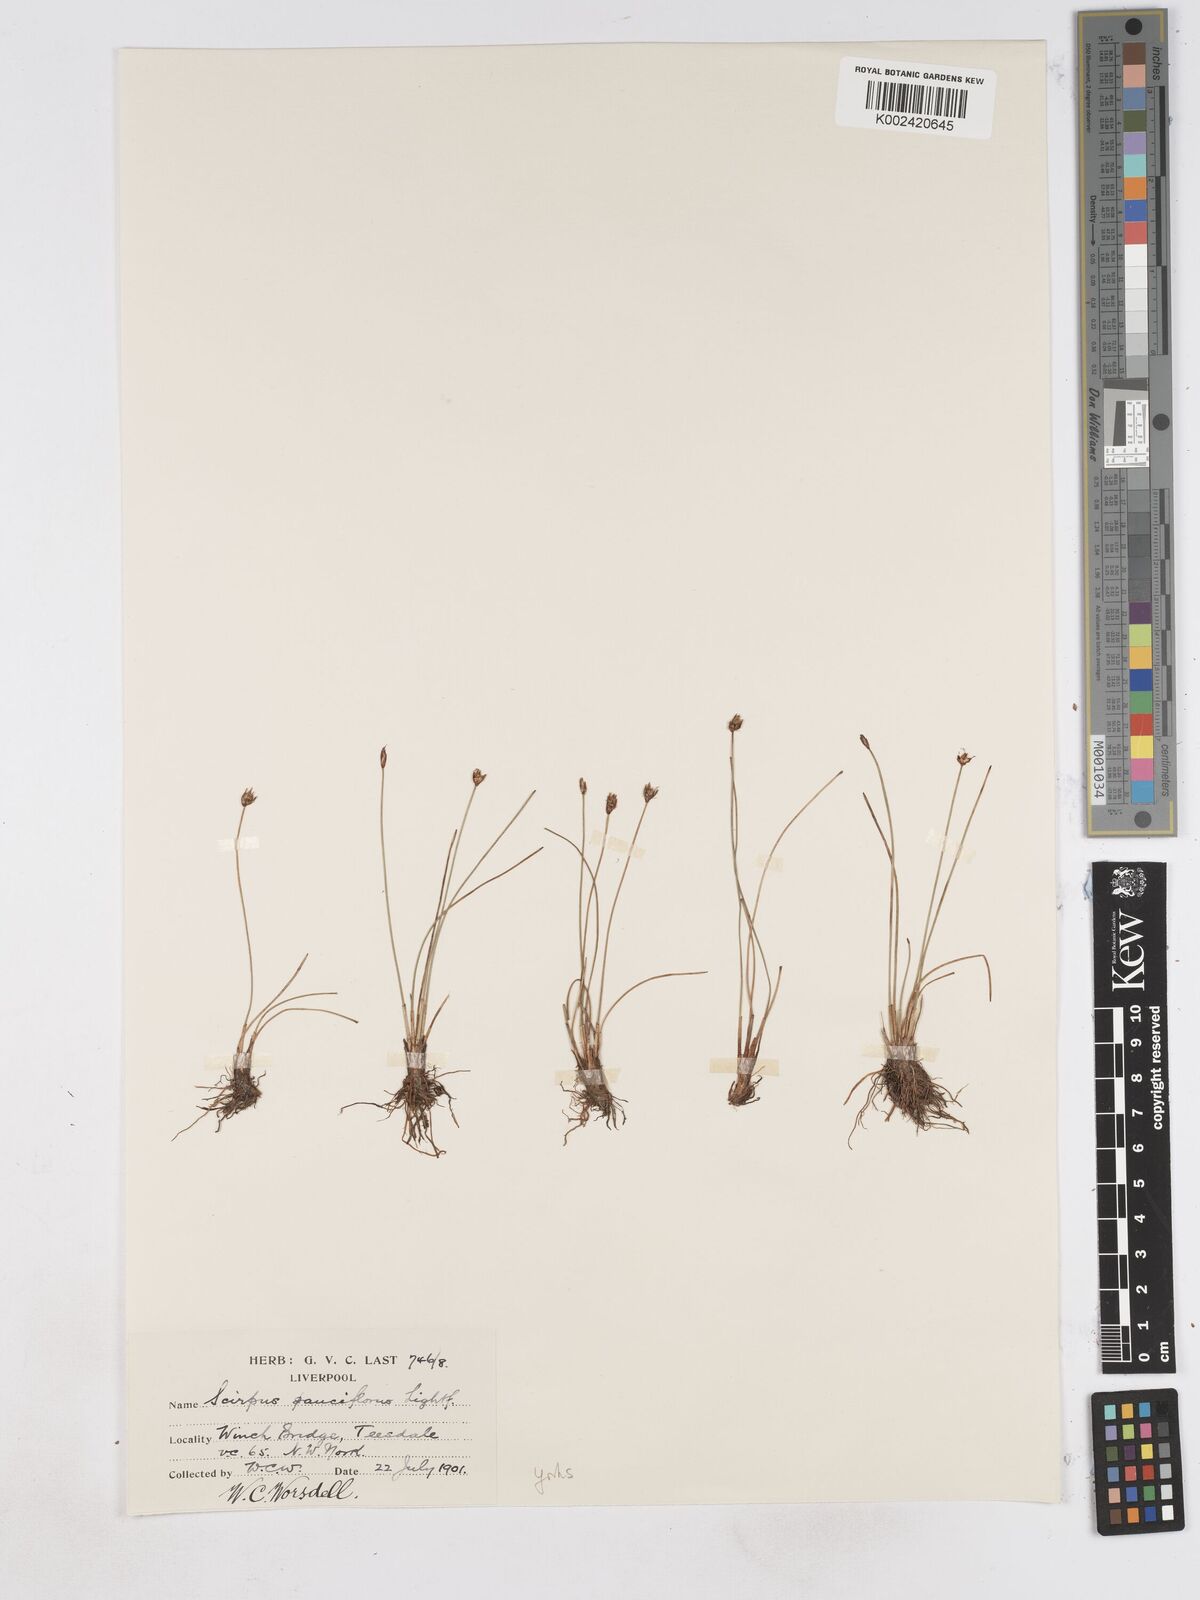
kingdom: Plantae
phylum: Tracheophyta
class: Liliopsida
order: Poales
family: Cyperaceae
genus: Eleocharis
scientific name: Eleocharis quinqueflora
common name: Few-flowered spike-rush
